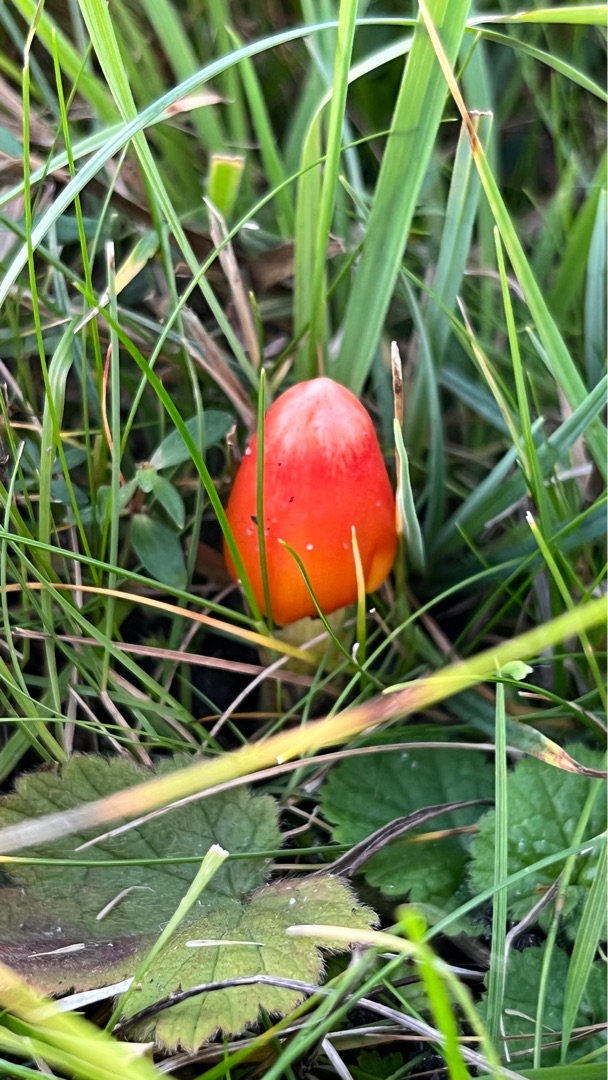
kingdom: Fungi
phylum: Basidiomycota
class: Agaricomycetes
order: Agaricales
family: Hygrophoraceae
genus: Hygrocybe
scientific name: Hygrocybe conica
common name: Kegle-vokshat
